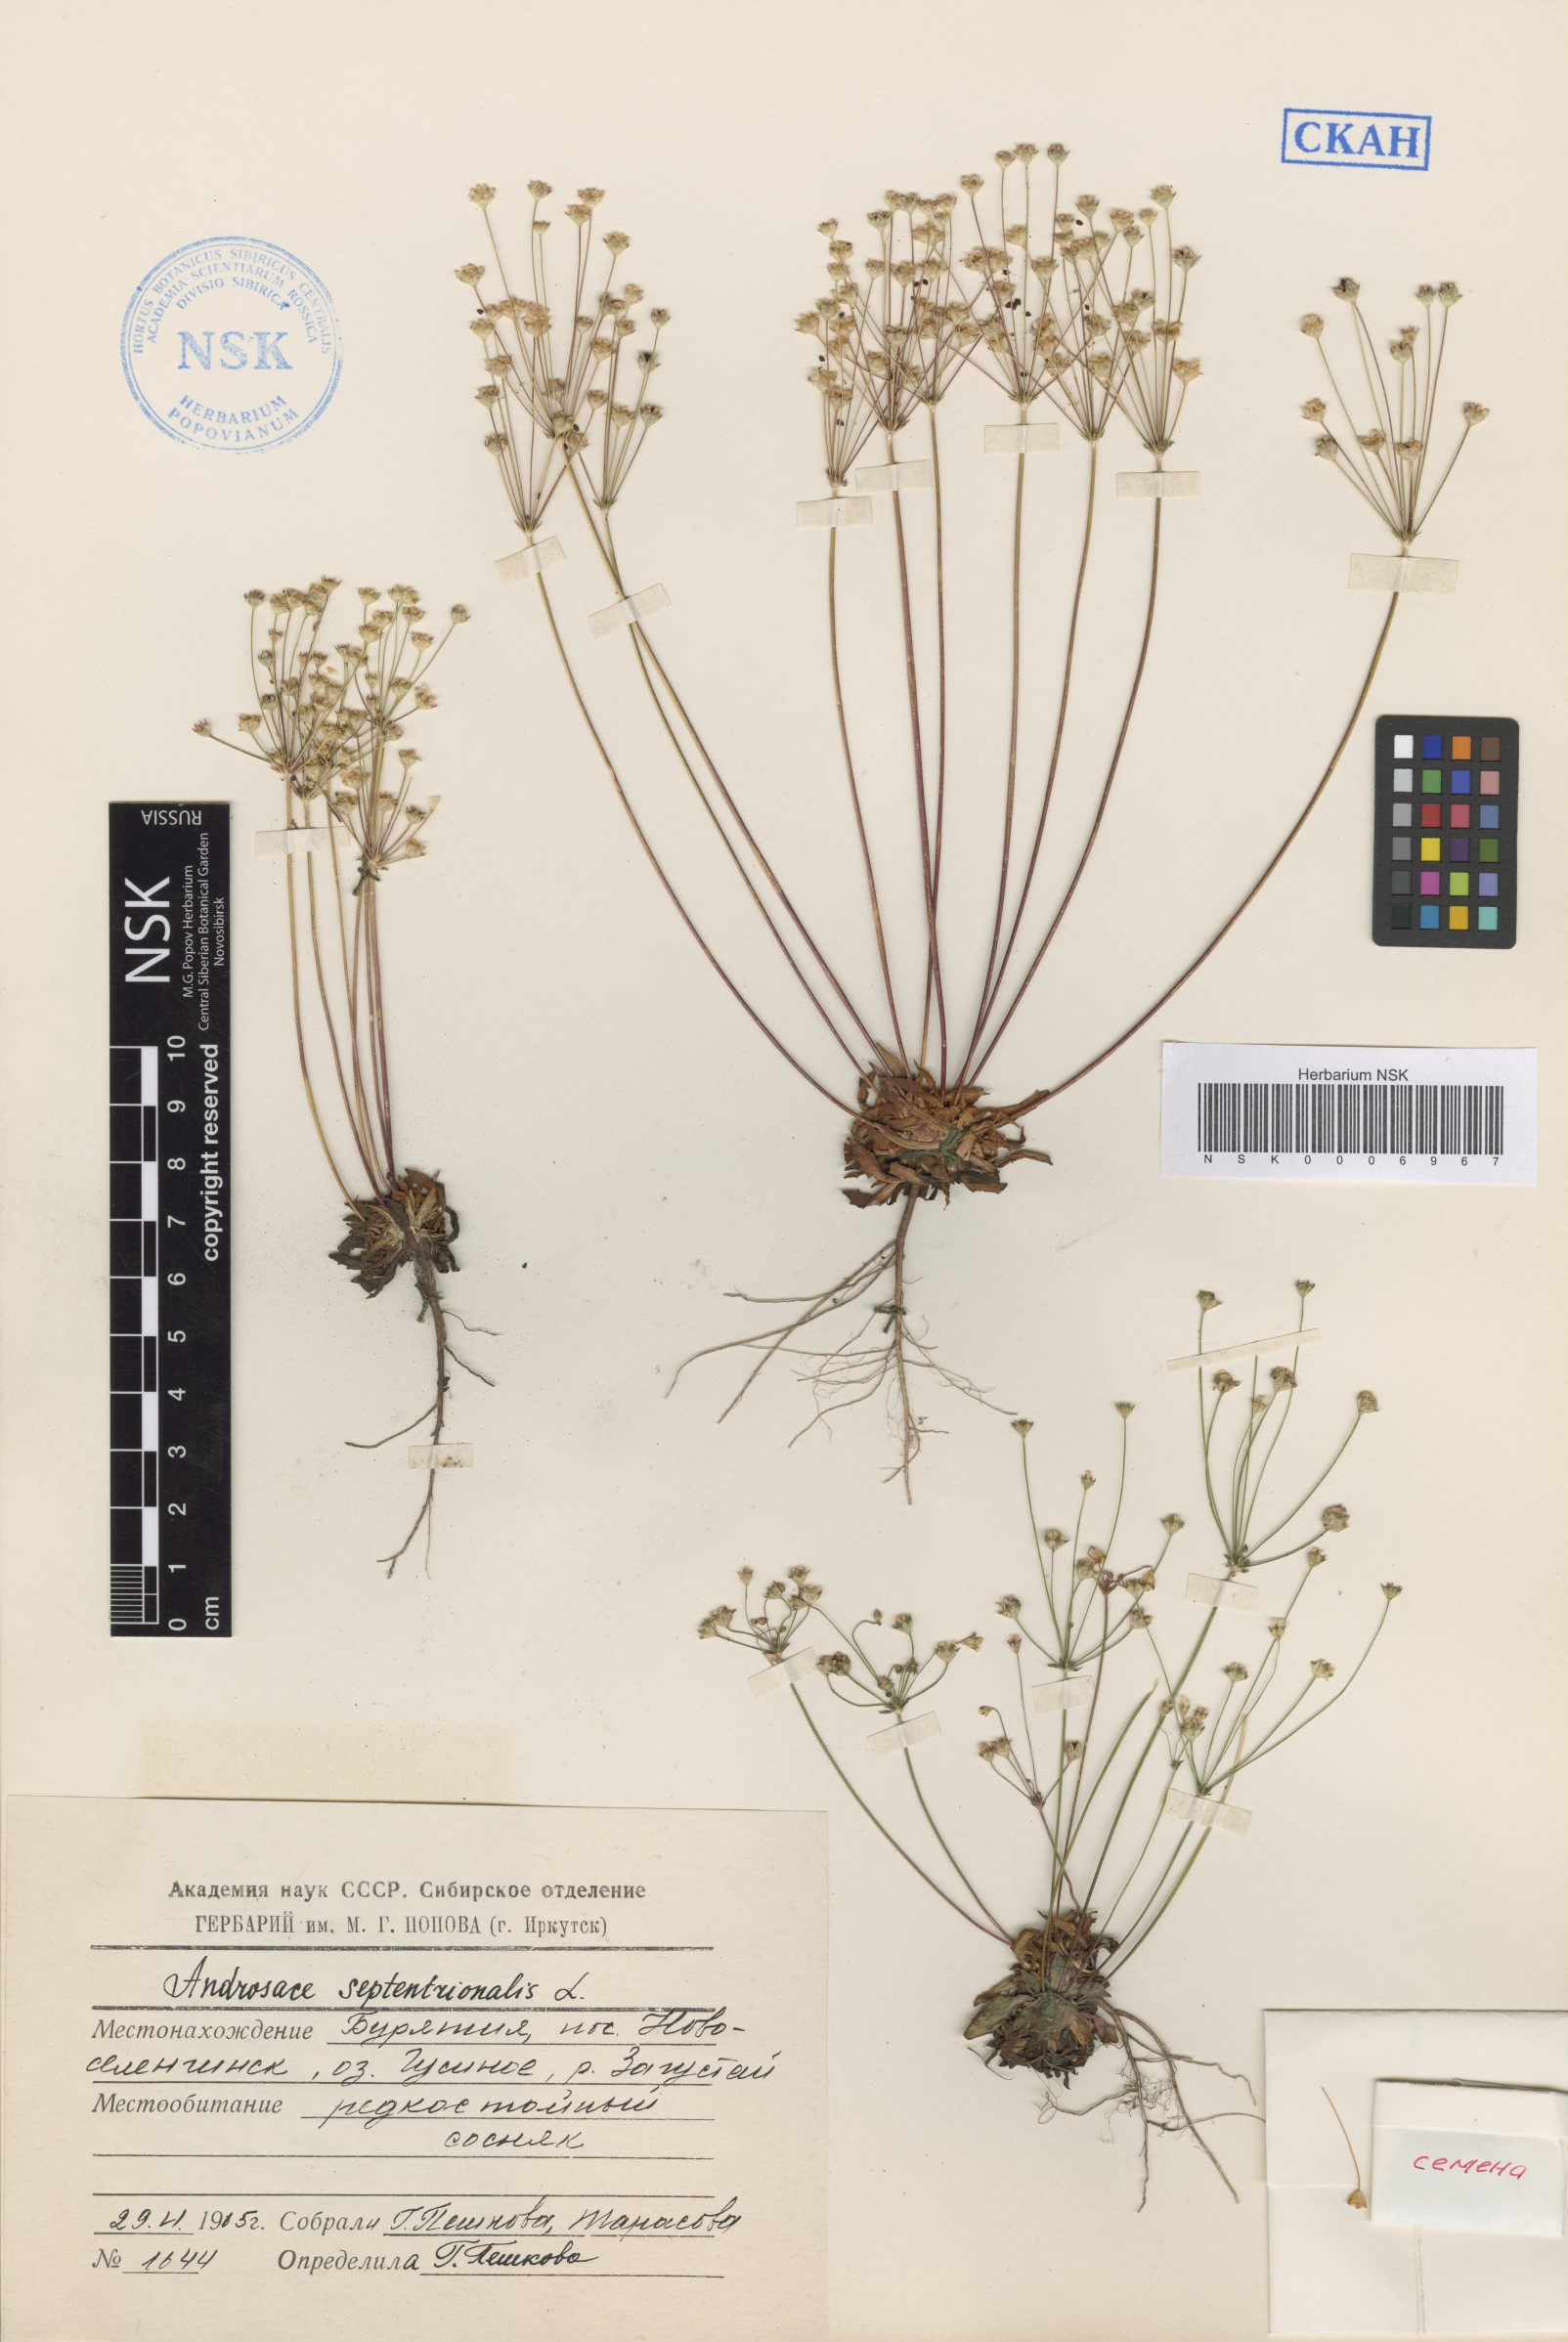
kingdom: Plantae
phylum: Tracheophyta
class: Magnoliopsida
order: Ericales
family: Primulaceae
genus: Androsace
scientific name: Androsace septentrionalis
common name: Hairy northern fairy-candelabra
